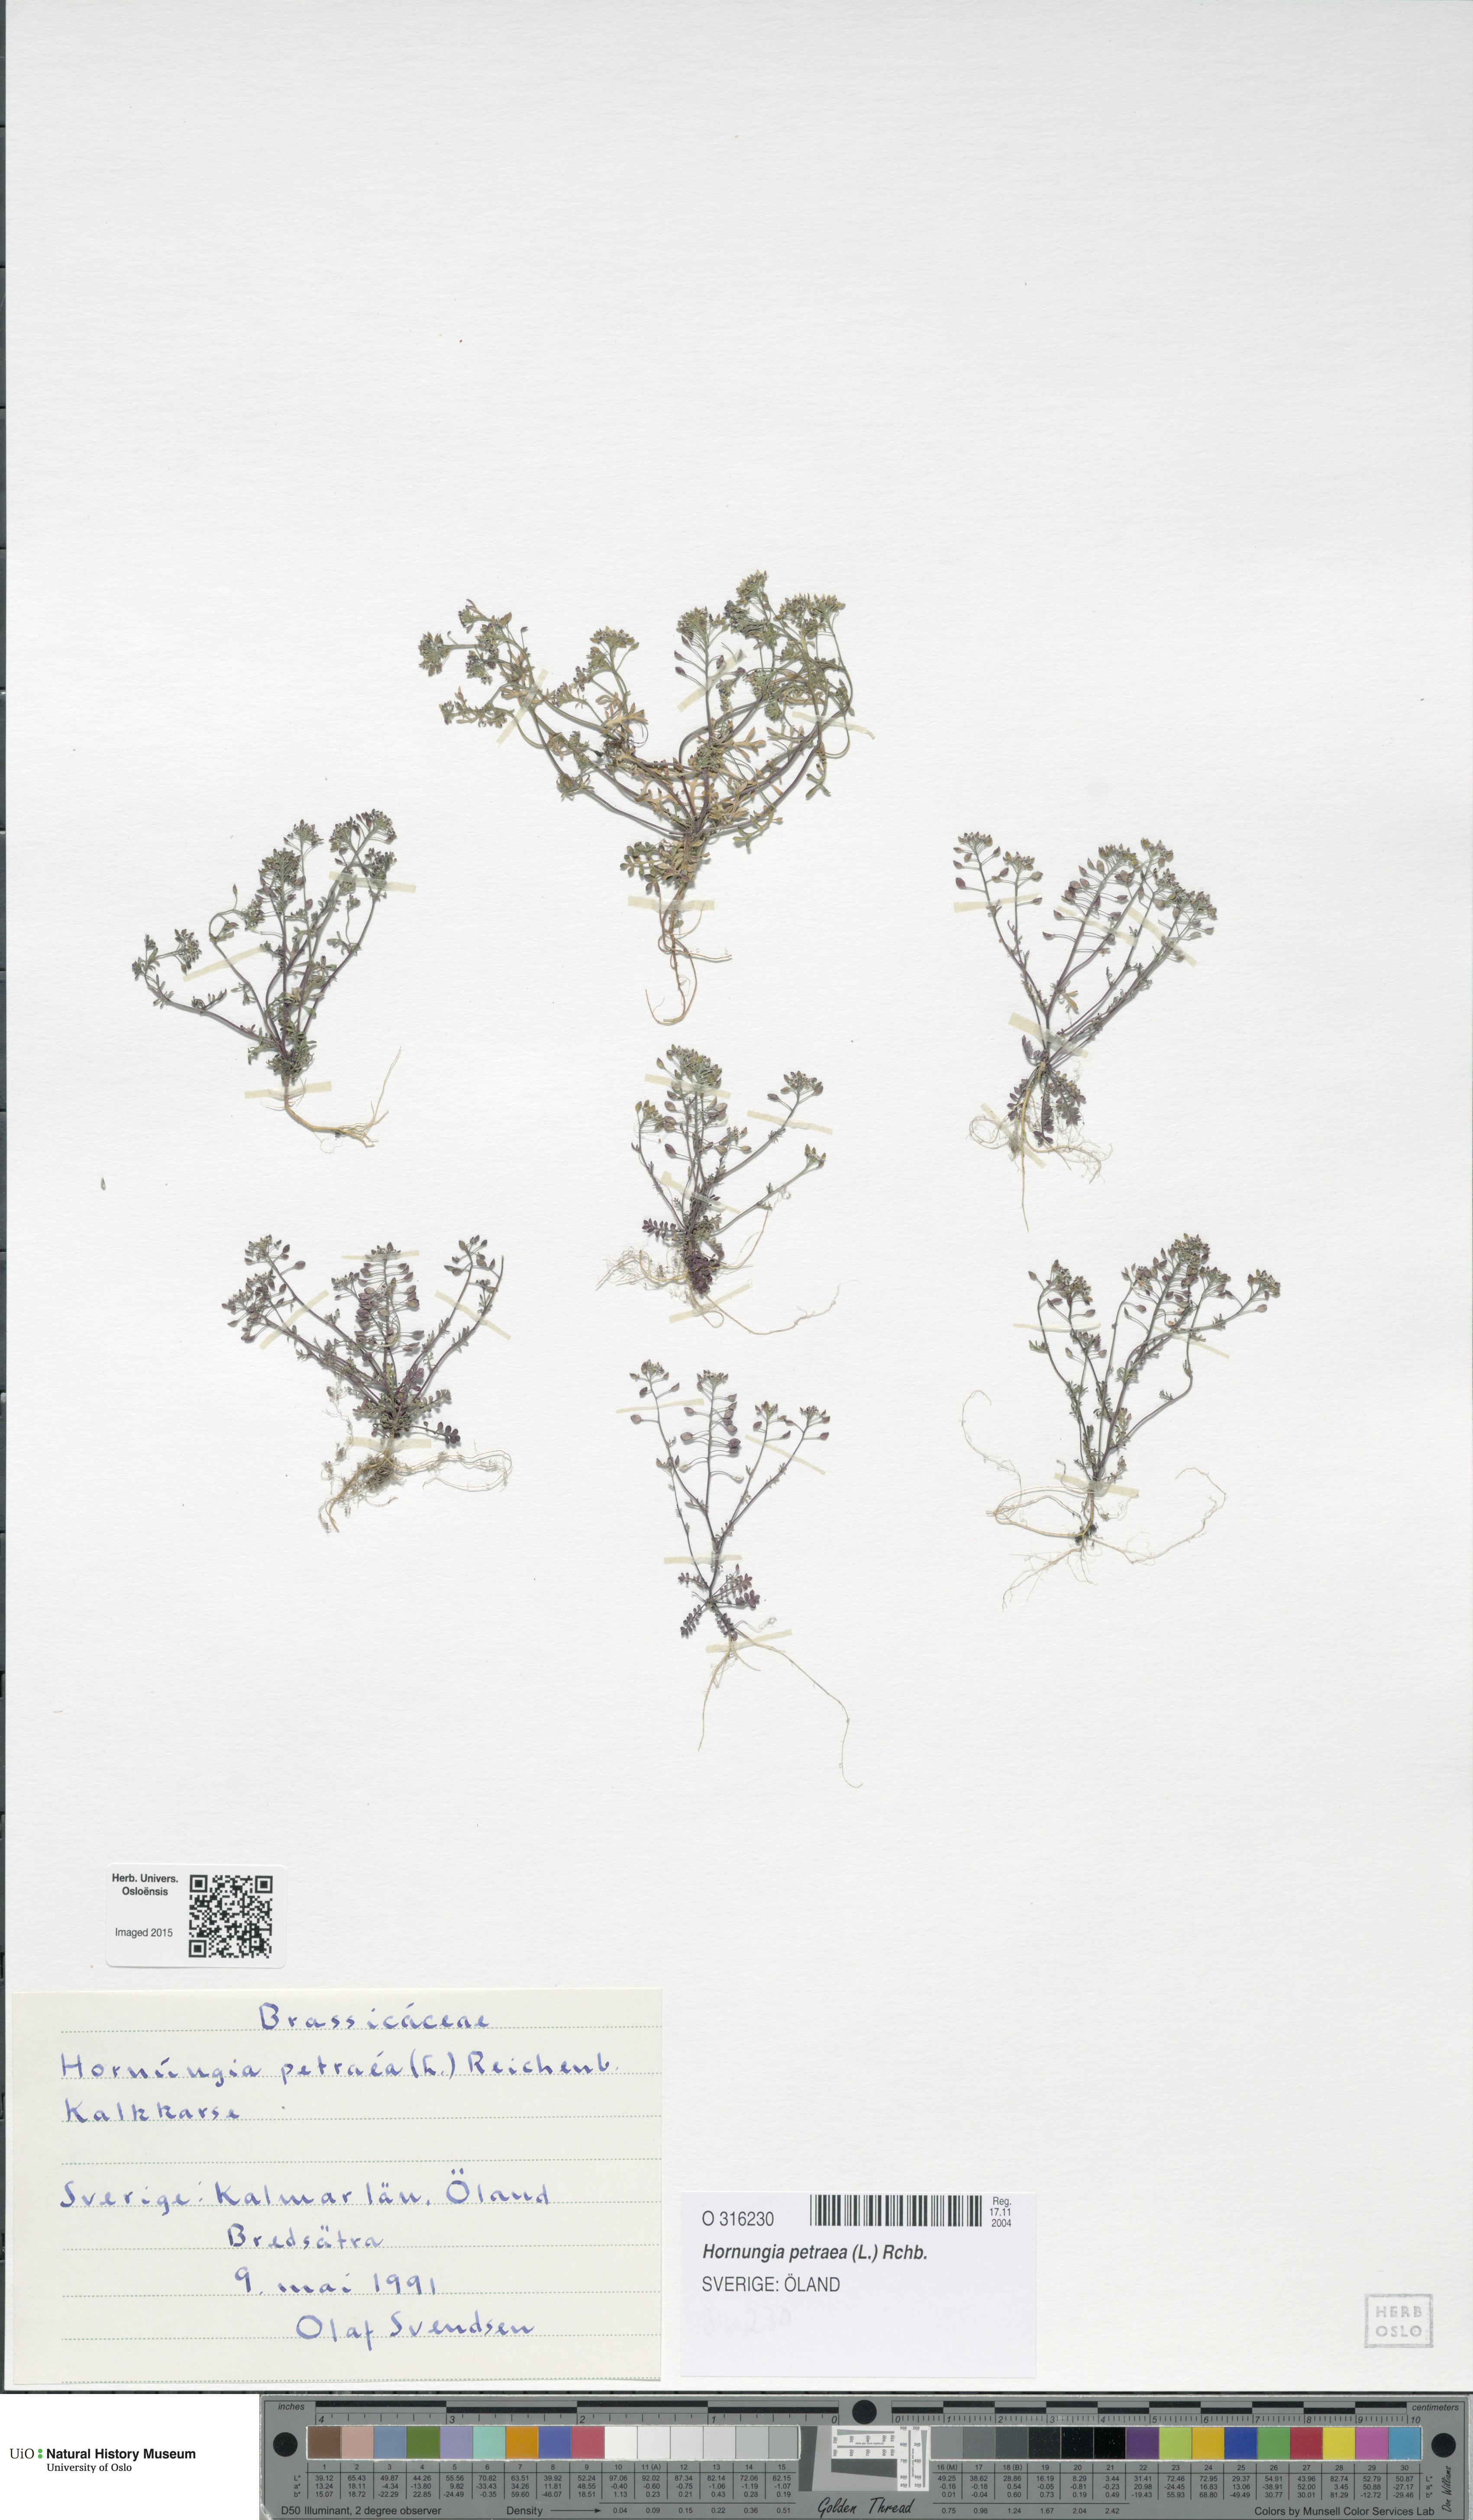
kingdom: Plantae
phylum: Tracheophyta
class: Magnoliopsida
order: Brassicales
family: Brassicaceae
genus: Hornungia
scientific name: Hornungia petraea
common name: Hutchinsia
